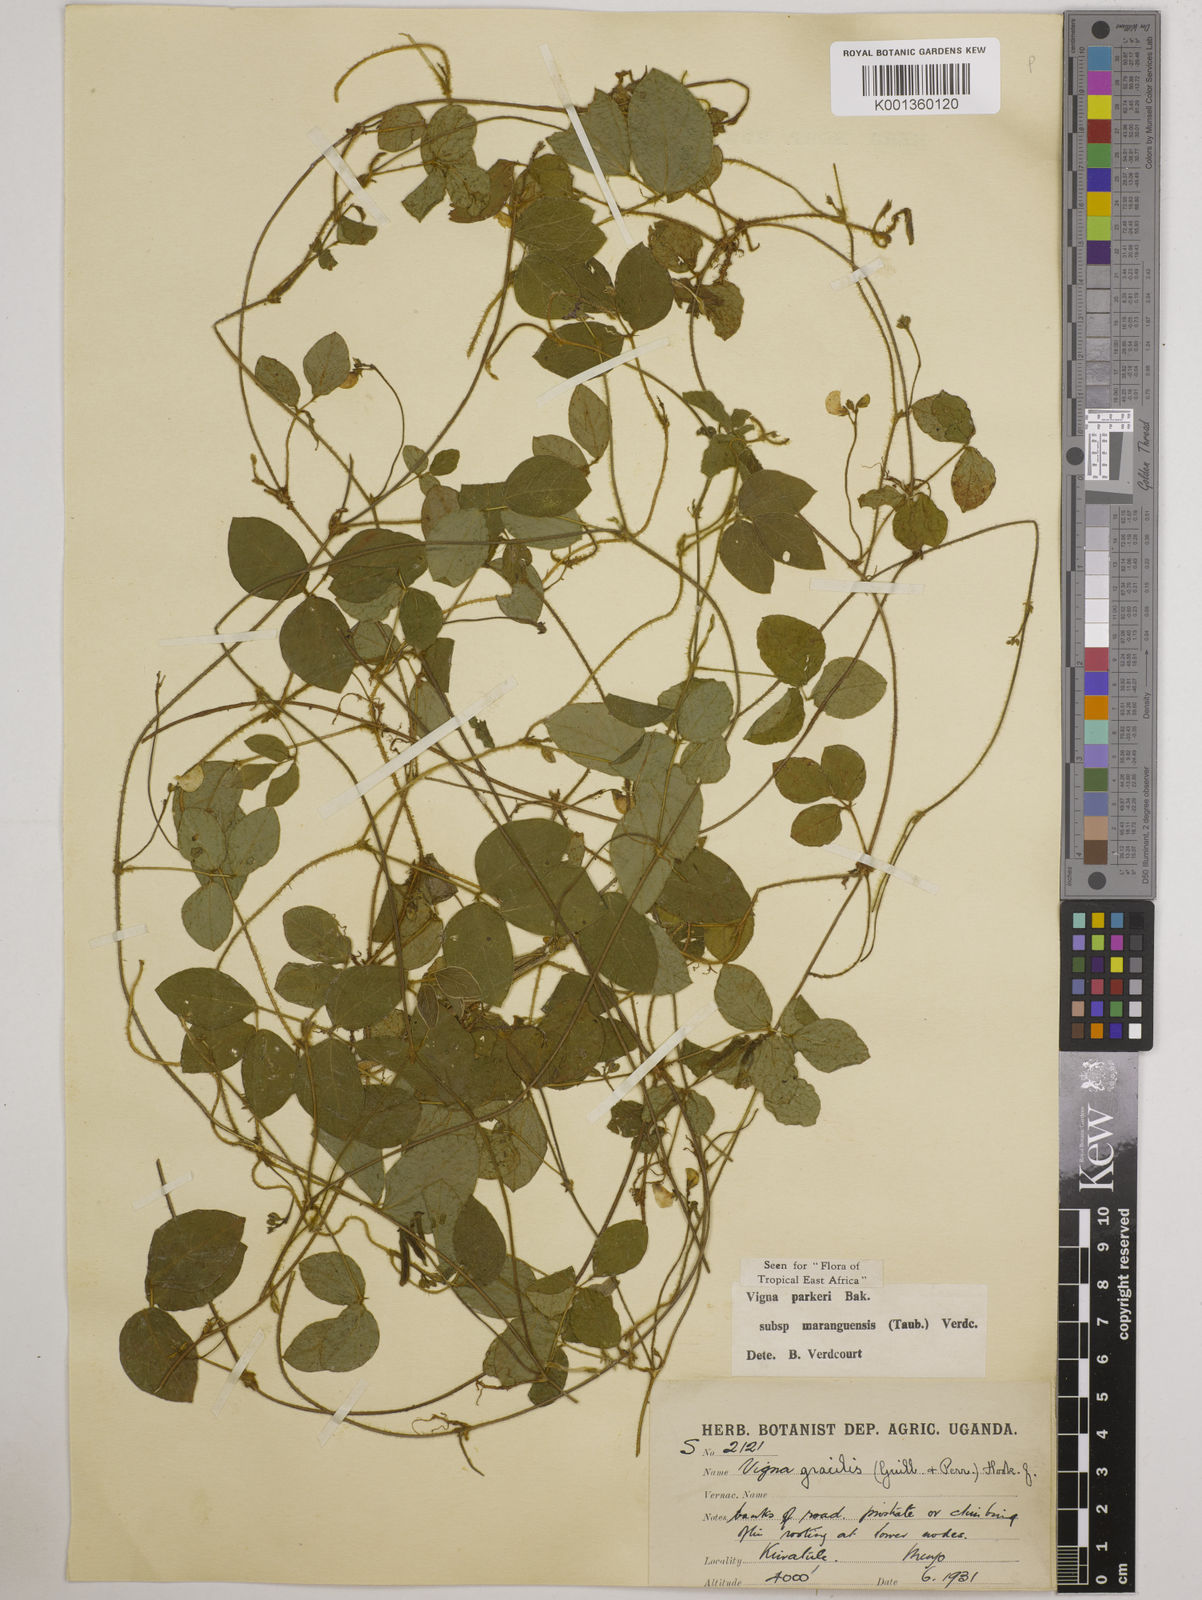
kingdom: Plantae
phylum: Tracheophyta
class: Magnoliopsida
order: Fabales
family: Fabaceae
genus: Vigna
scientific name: Vigna
